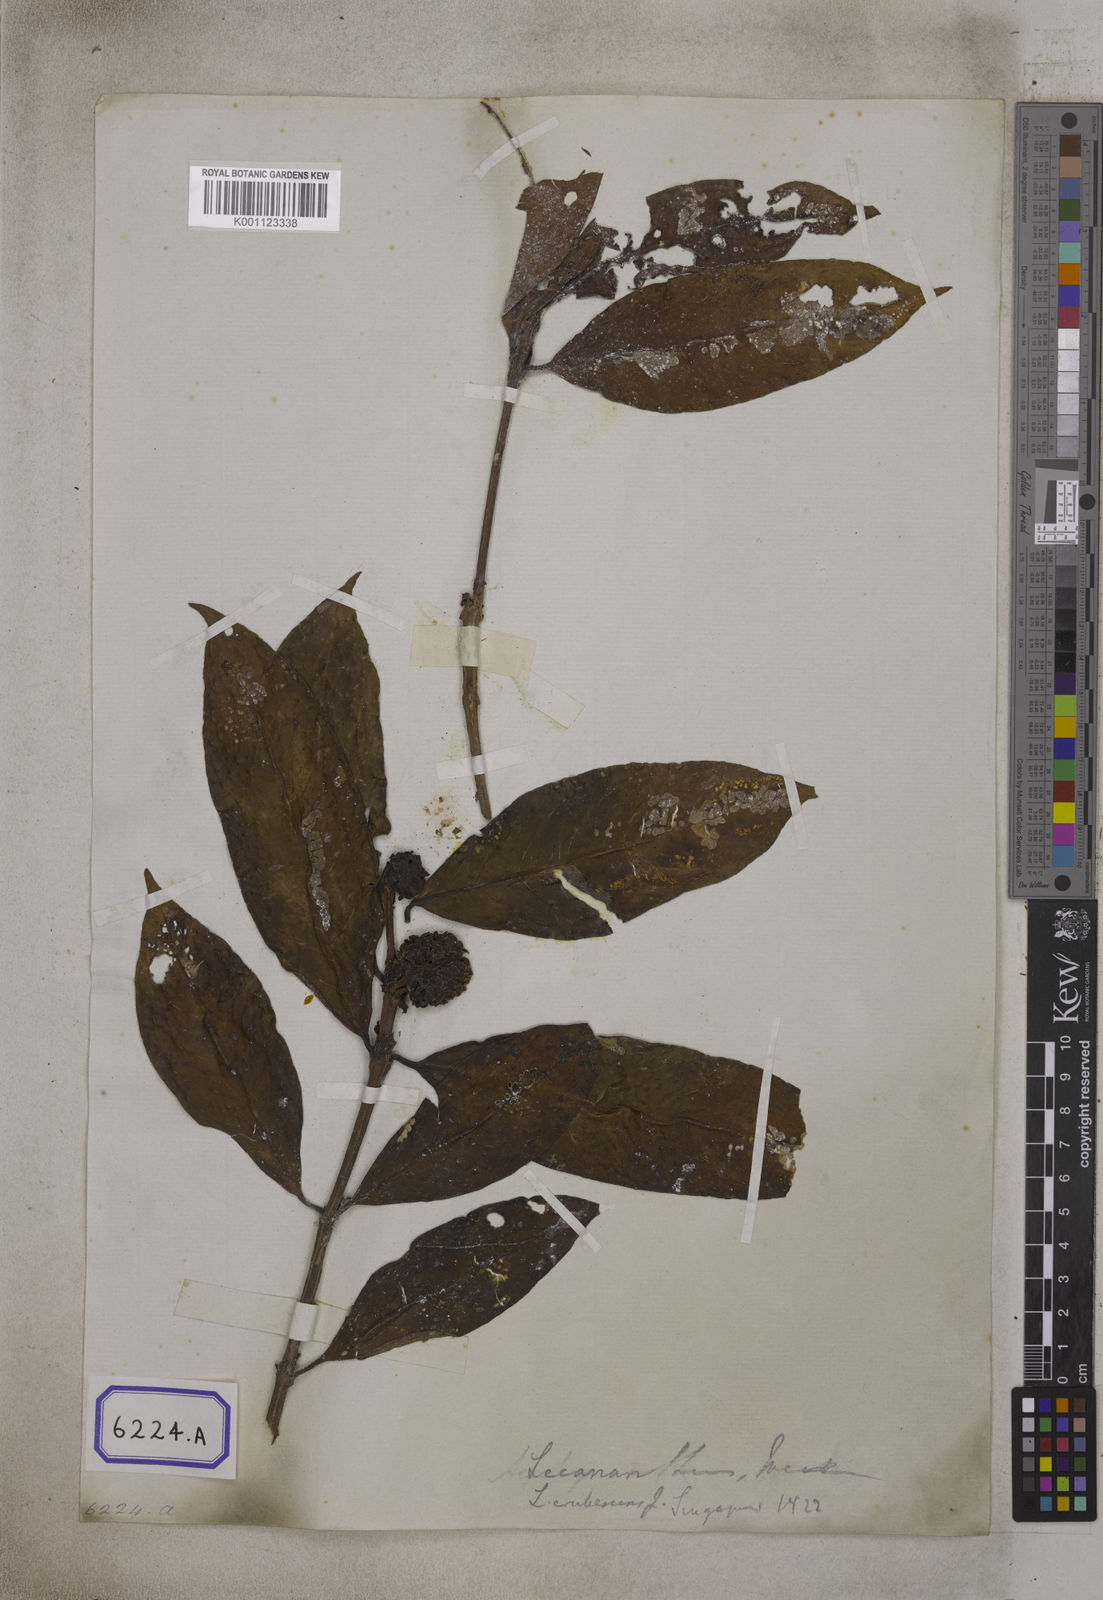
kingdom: Plantae
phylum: Tracheophyta
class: Magnoliopsida
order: Gentianales
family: Rubiaceae
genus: Lecananthus
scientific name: Lecananthus erubescens
